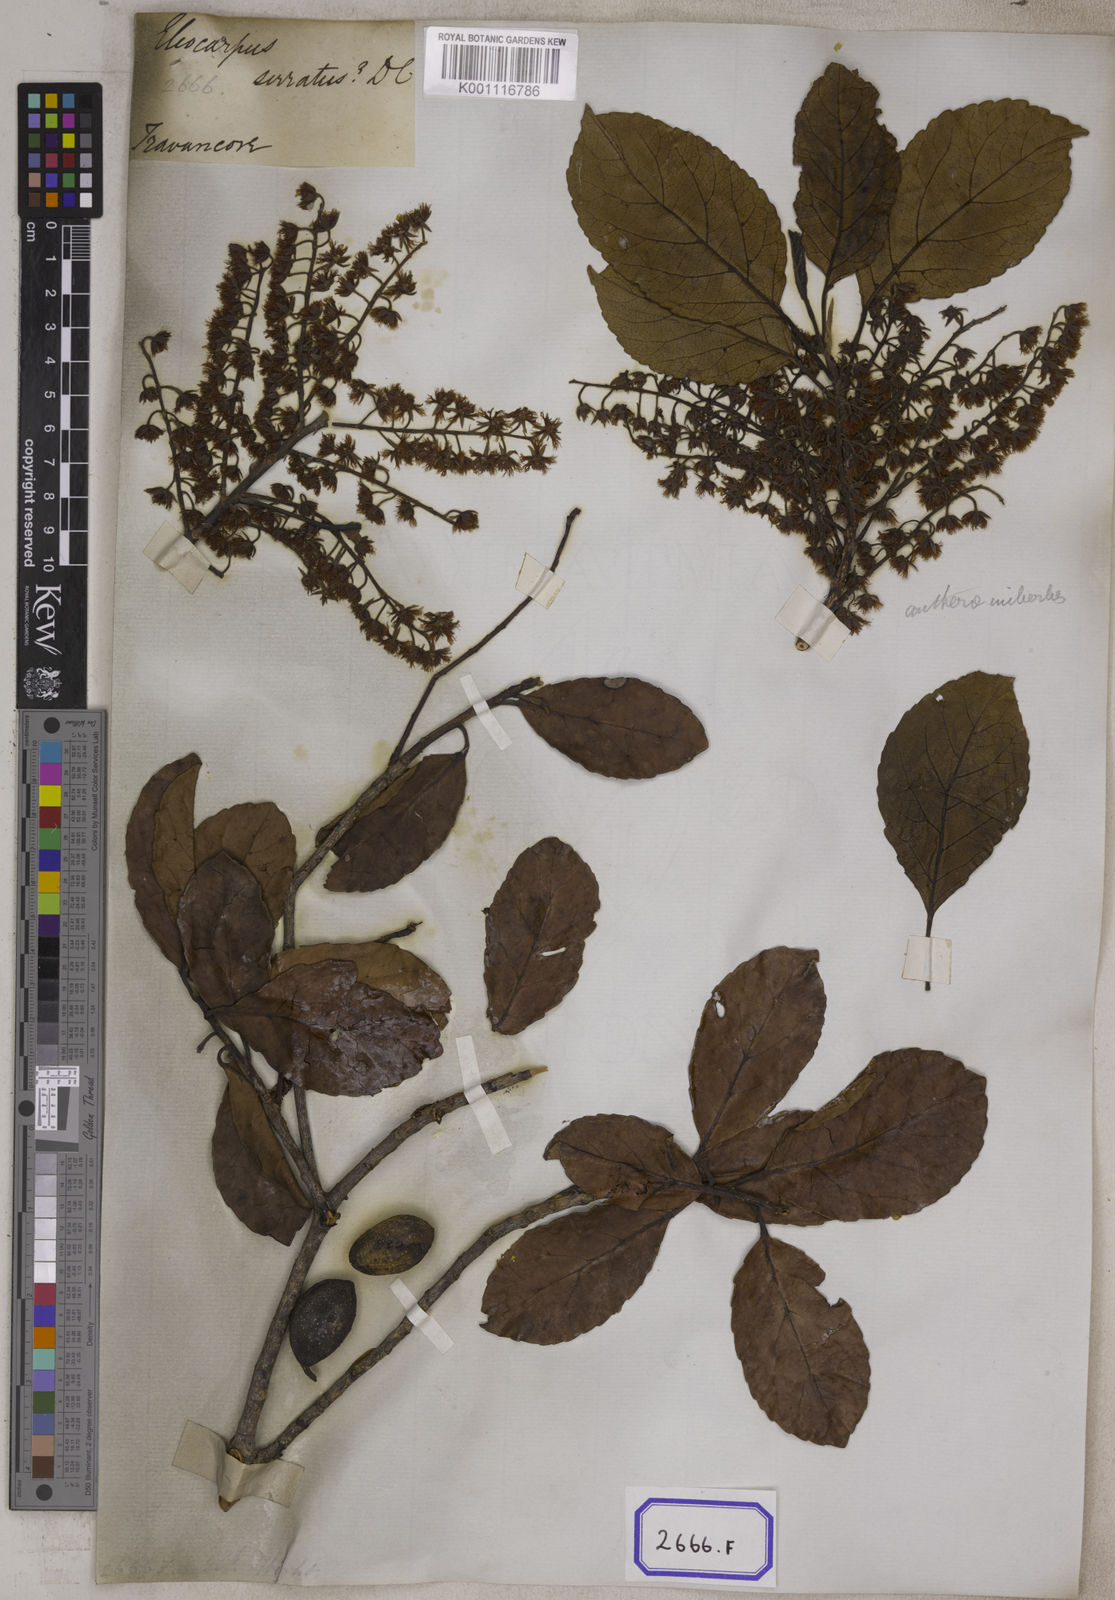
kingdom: Plantae
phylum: Tracheophyta
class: Magnoliopsida
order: Oxalidales
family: Elaeocarpaceae
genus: Elaeocarpus
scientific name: Elaeocarpus serratus
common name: Ceylon-olive
